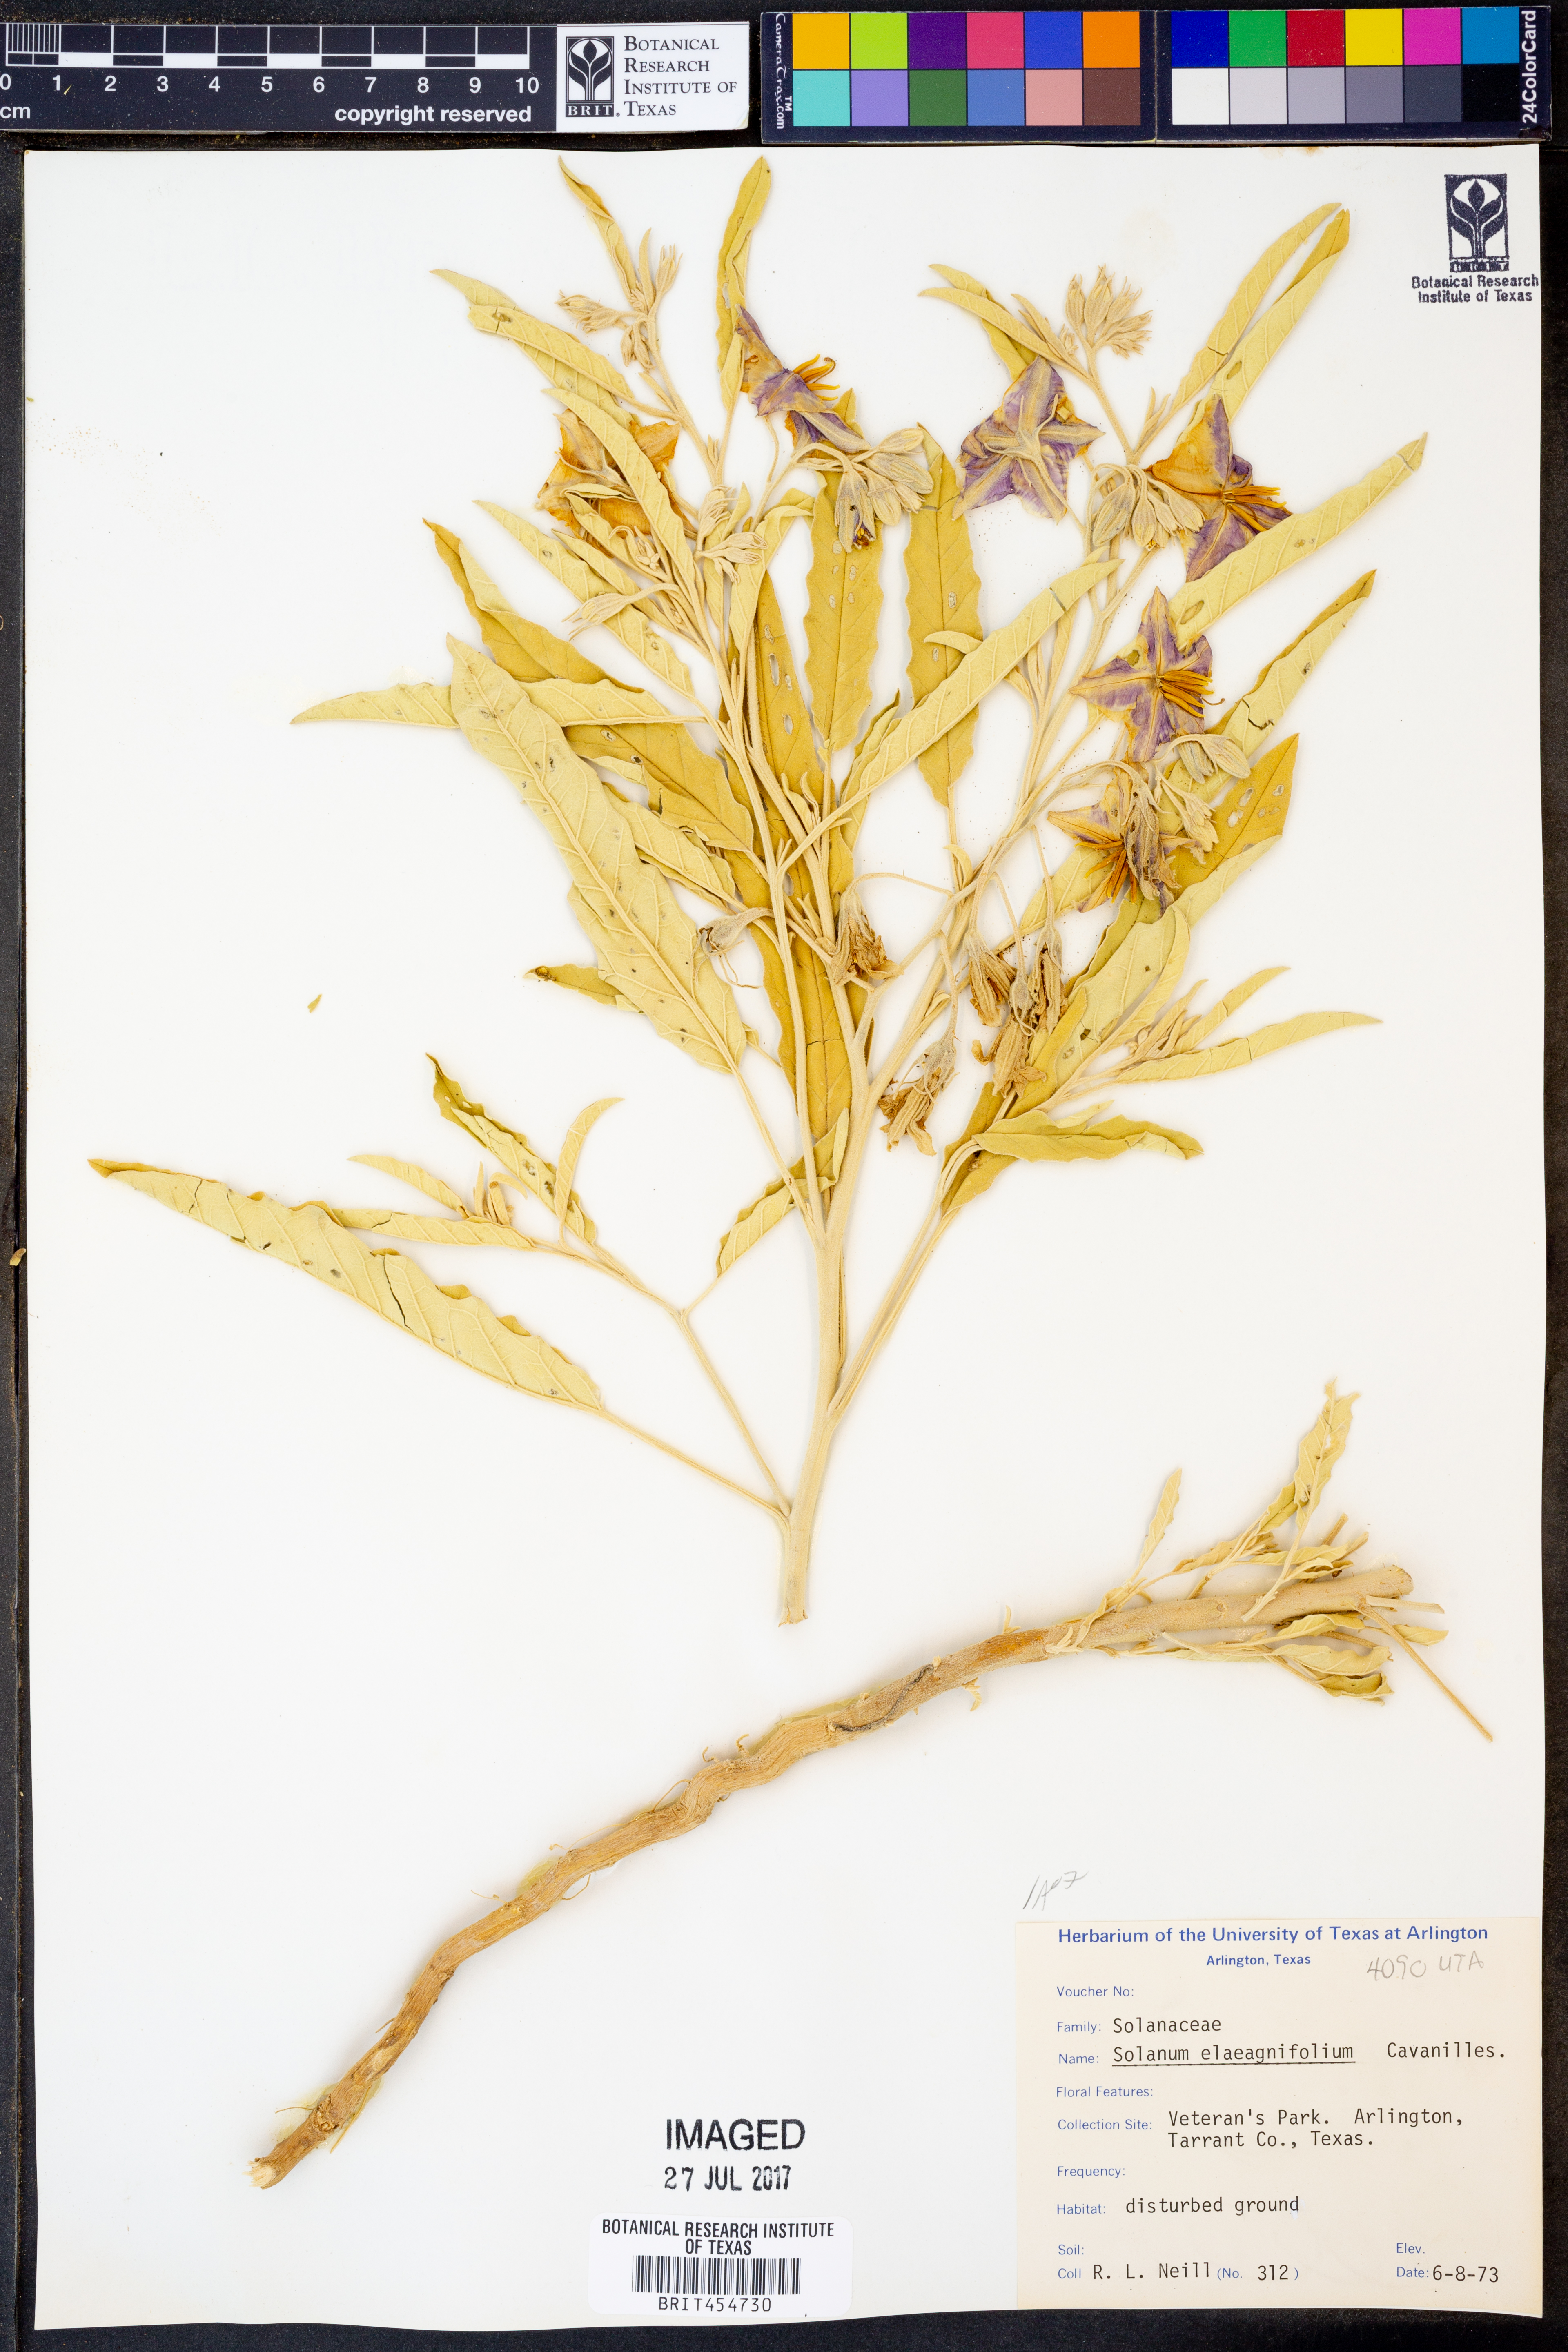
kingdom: Plantae
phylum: Tracheophyta
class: Magnoliopsida
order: Solanales
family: Solanaceae
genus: Solanum
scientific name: Solanum elaeagnifolium
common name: Silverleaf nightshade
